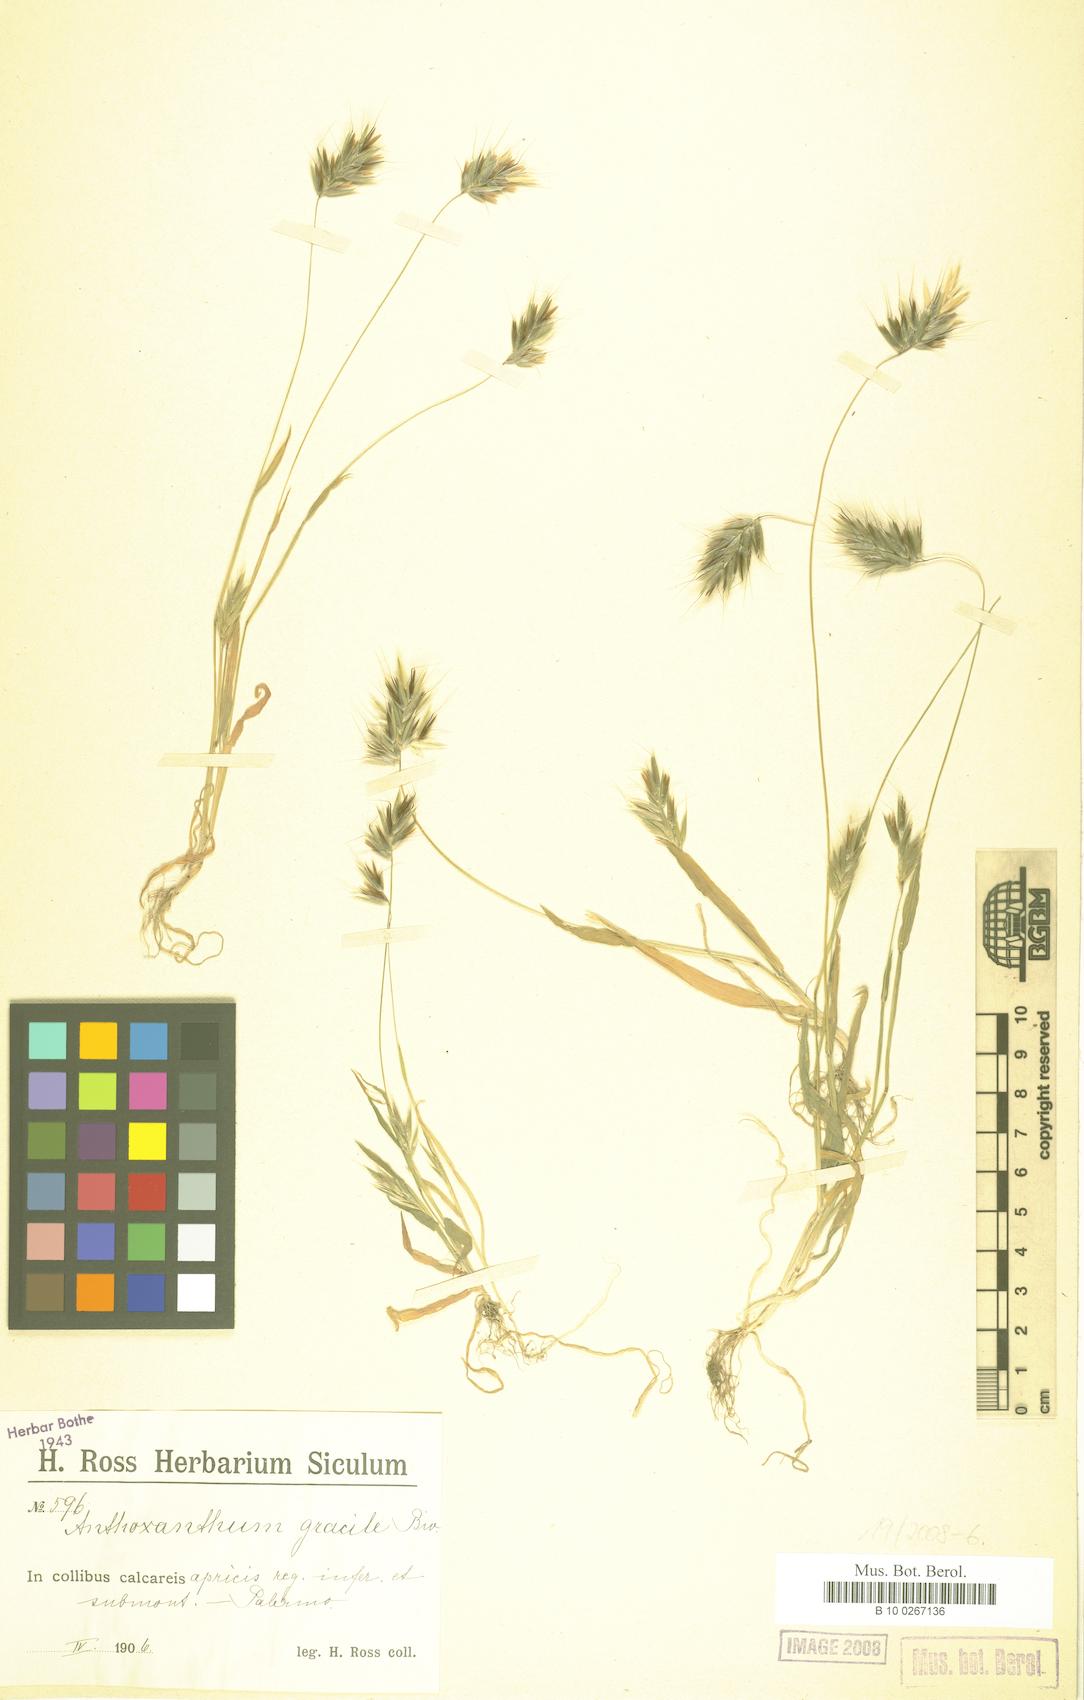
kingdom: Plantae
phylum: Tracheophyta
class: Liliopsida
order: Poales
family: Poaceae
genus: Anthoxanthum
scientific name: Anthoxanthum gracile
